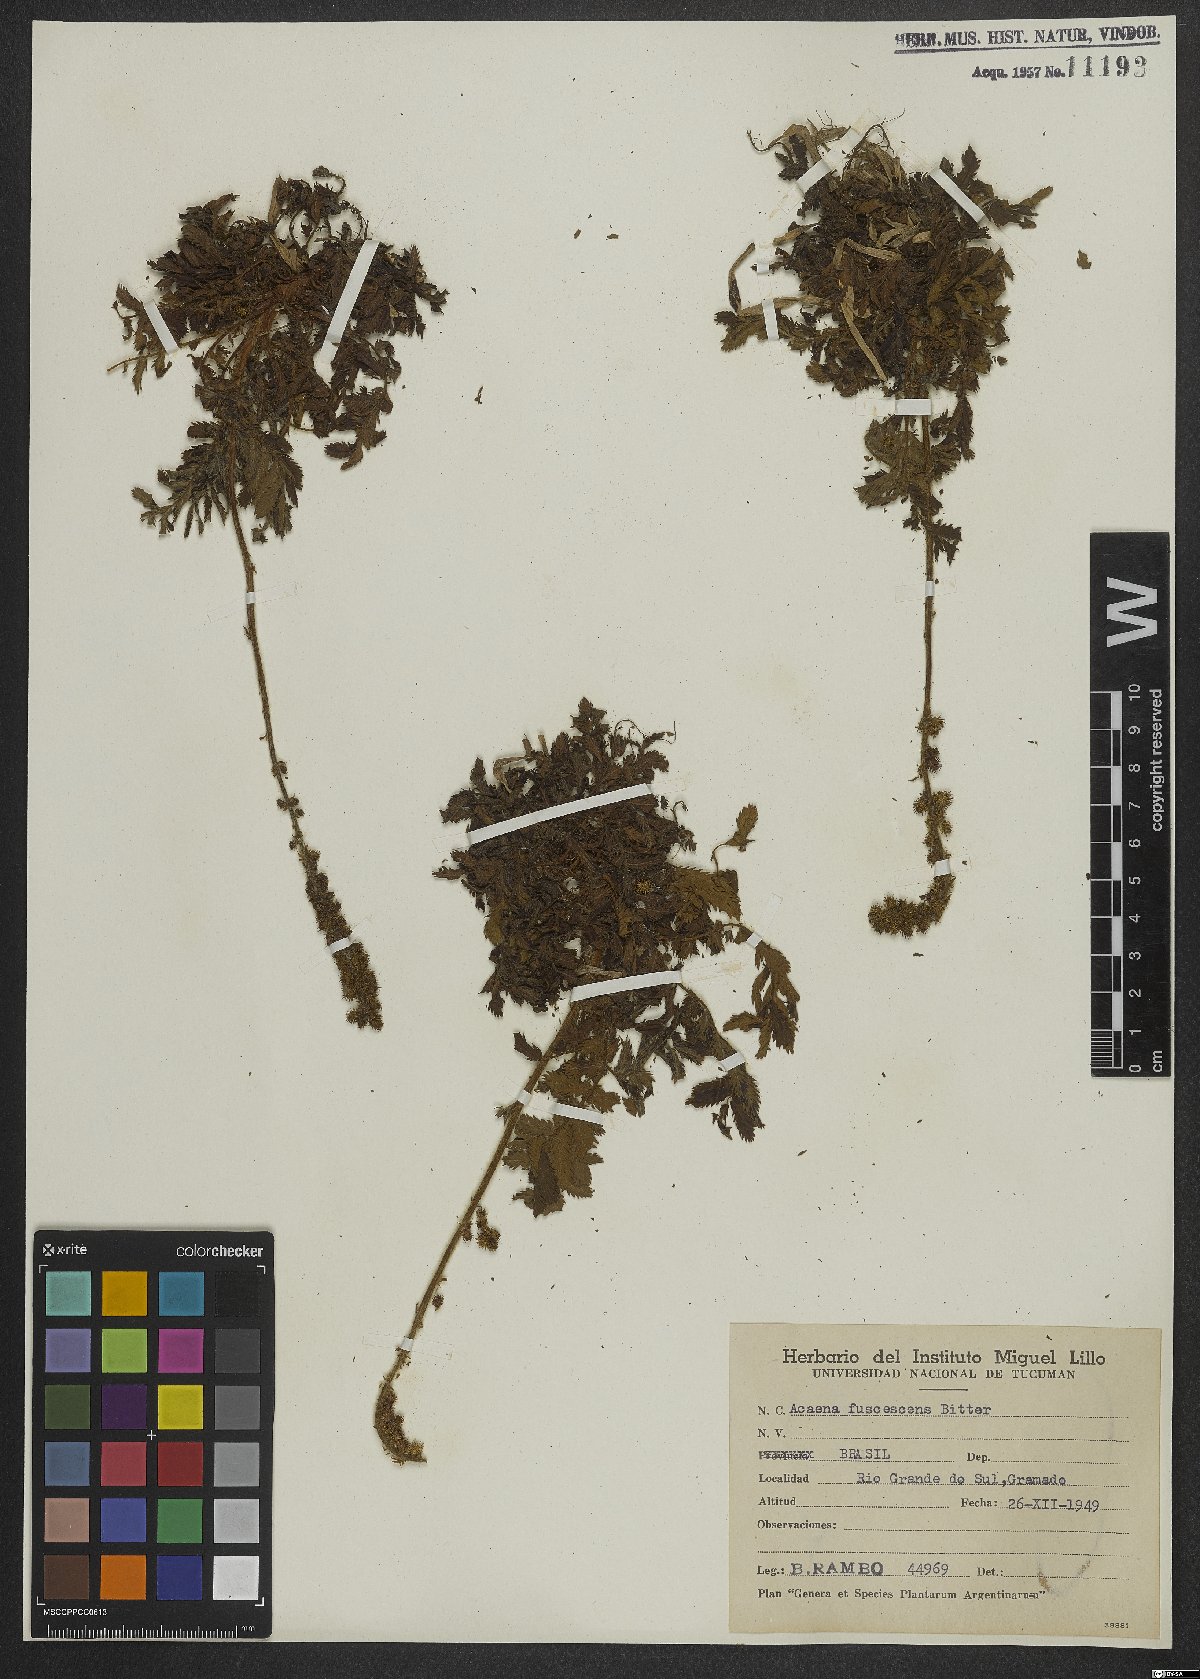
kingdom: Plantae
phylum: Tracheophyta
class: Magnoliopsida
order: Rosales
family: Rosaceae
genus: Acaena
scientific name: Acaena fuscescens
